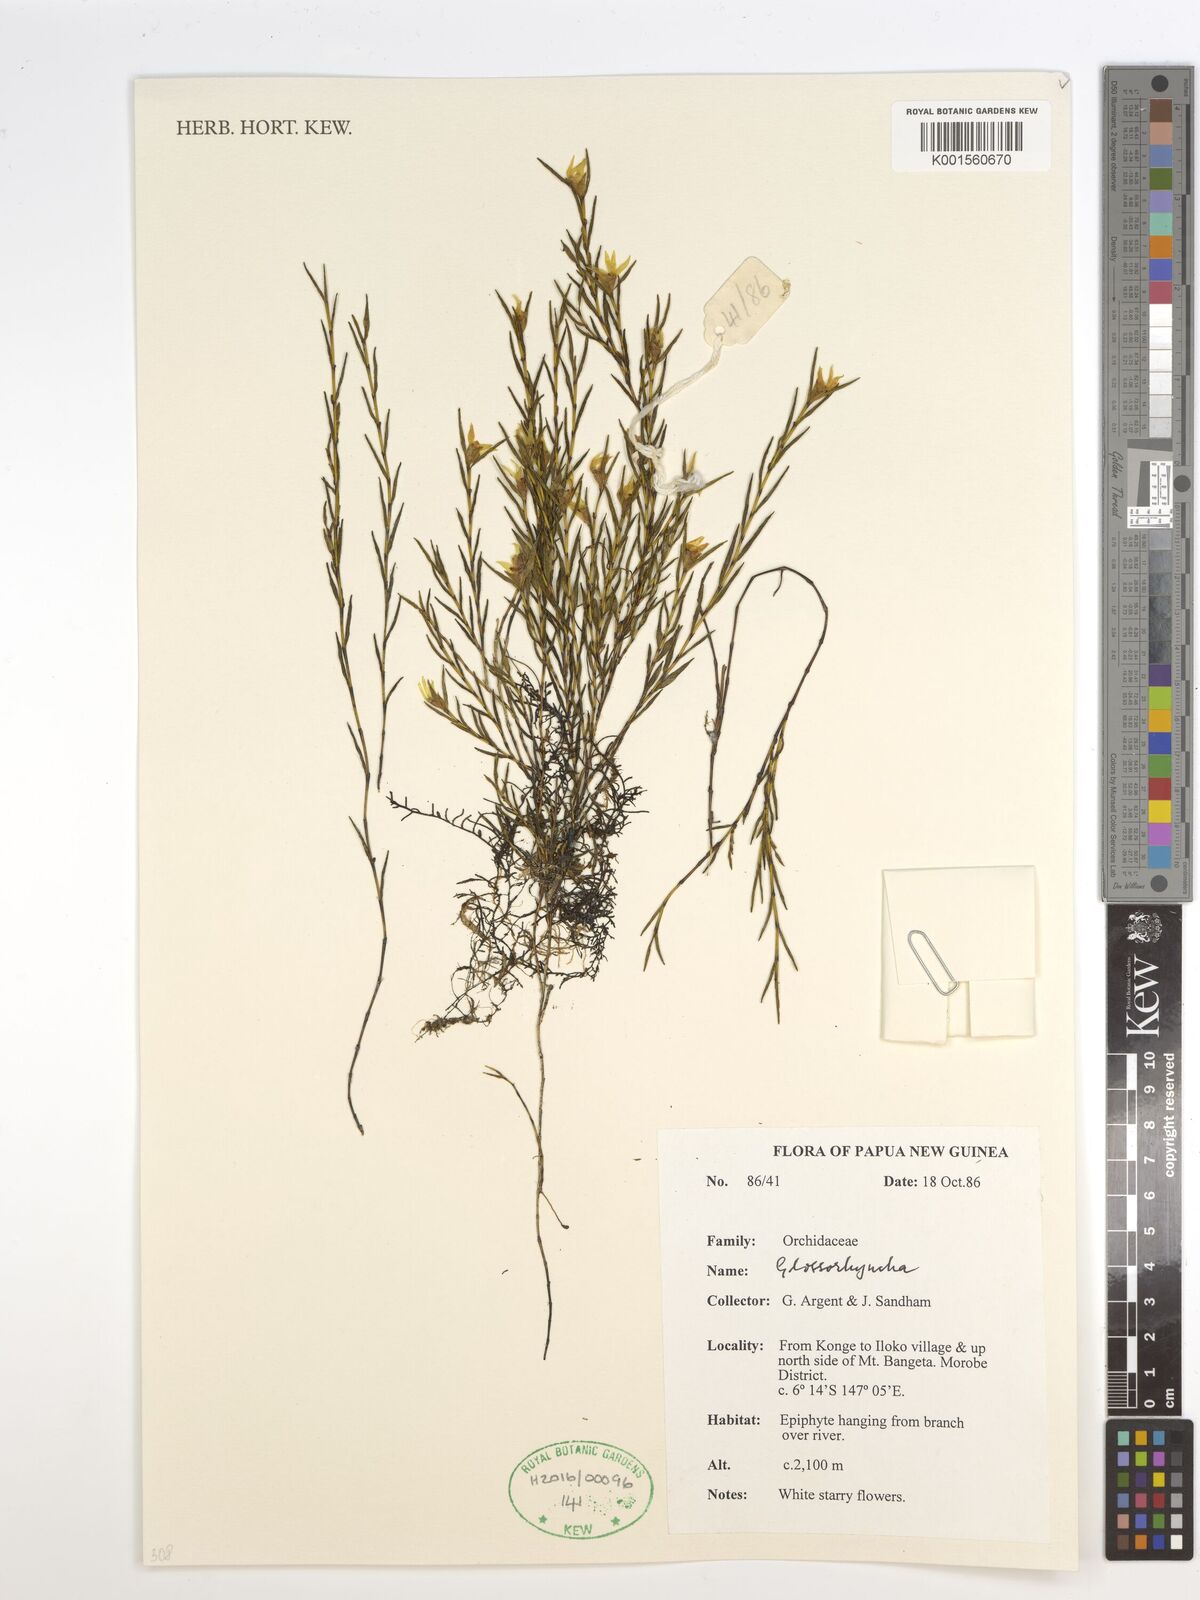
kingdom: Plantae
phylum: Tracheophyta
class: Liliopsida
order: Asparagales
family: Orchidaceae
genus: Glomera
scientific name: Glomera
